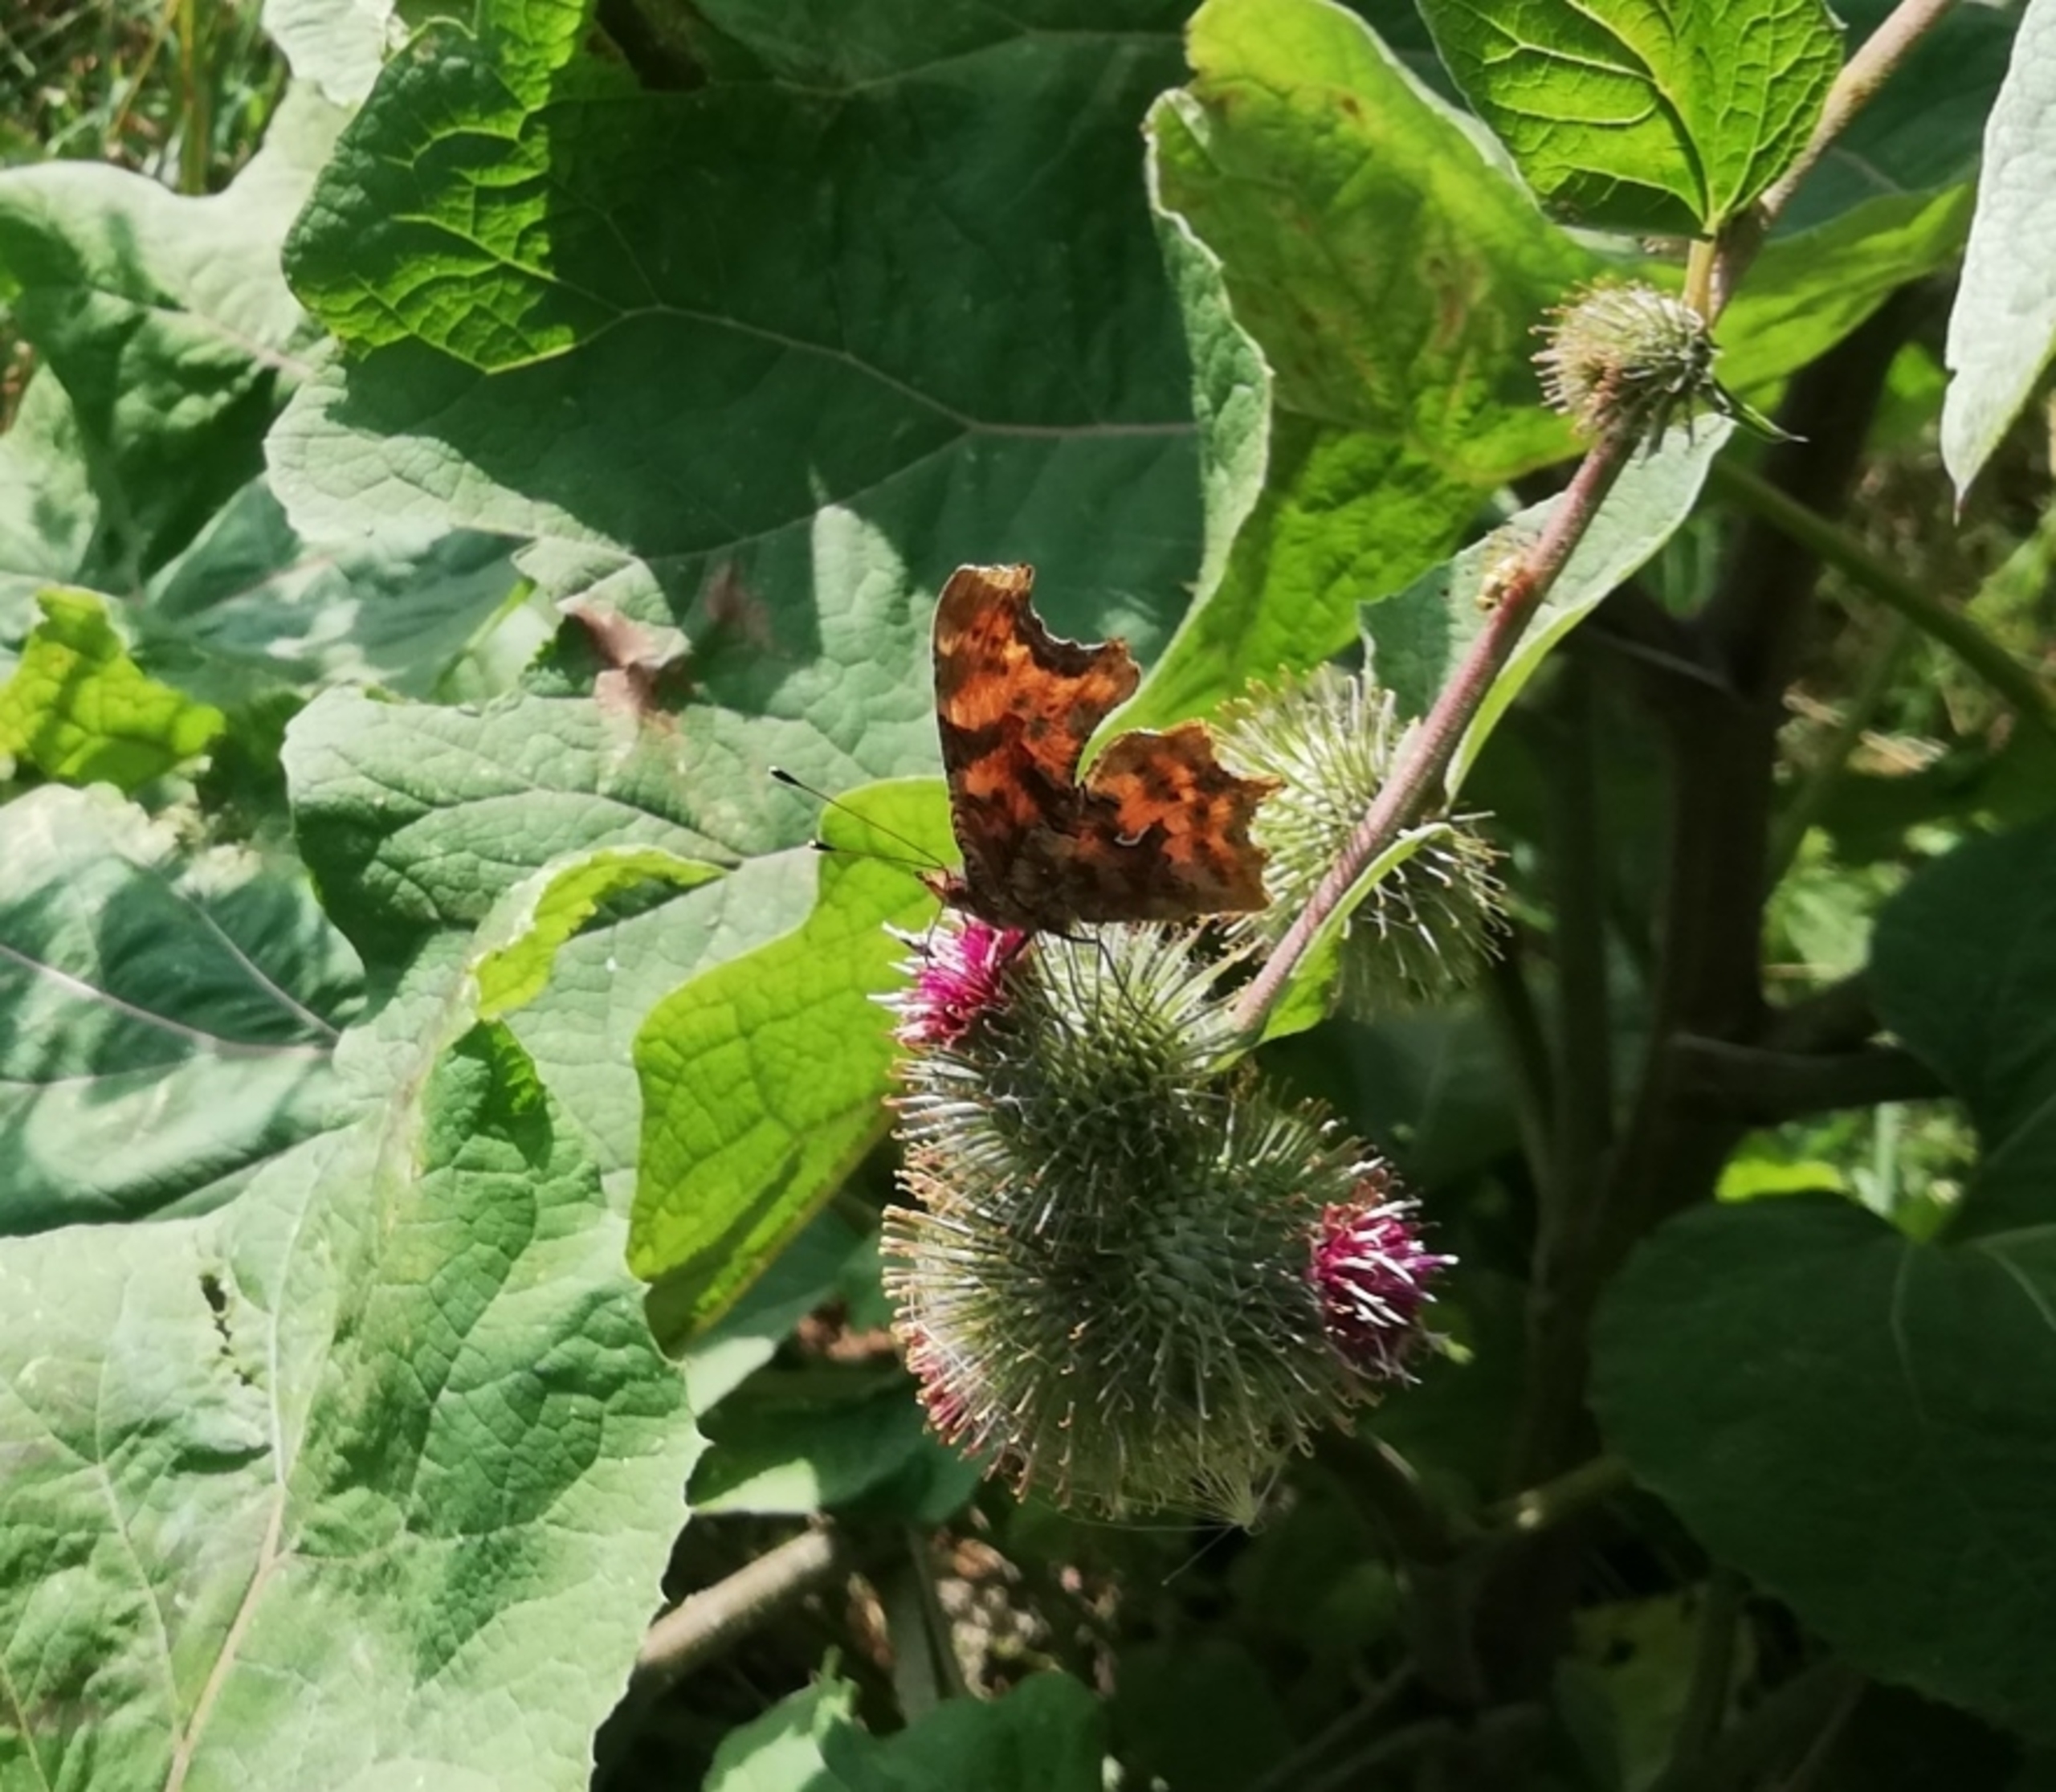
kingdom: Animalia
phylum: Arthropoda
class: Insecta
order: Lepidoptera
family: Nymphalidae
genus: Polygonia
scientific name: Polygonia c-album
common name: Det hvide C
